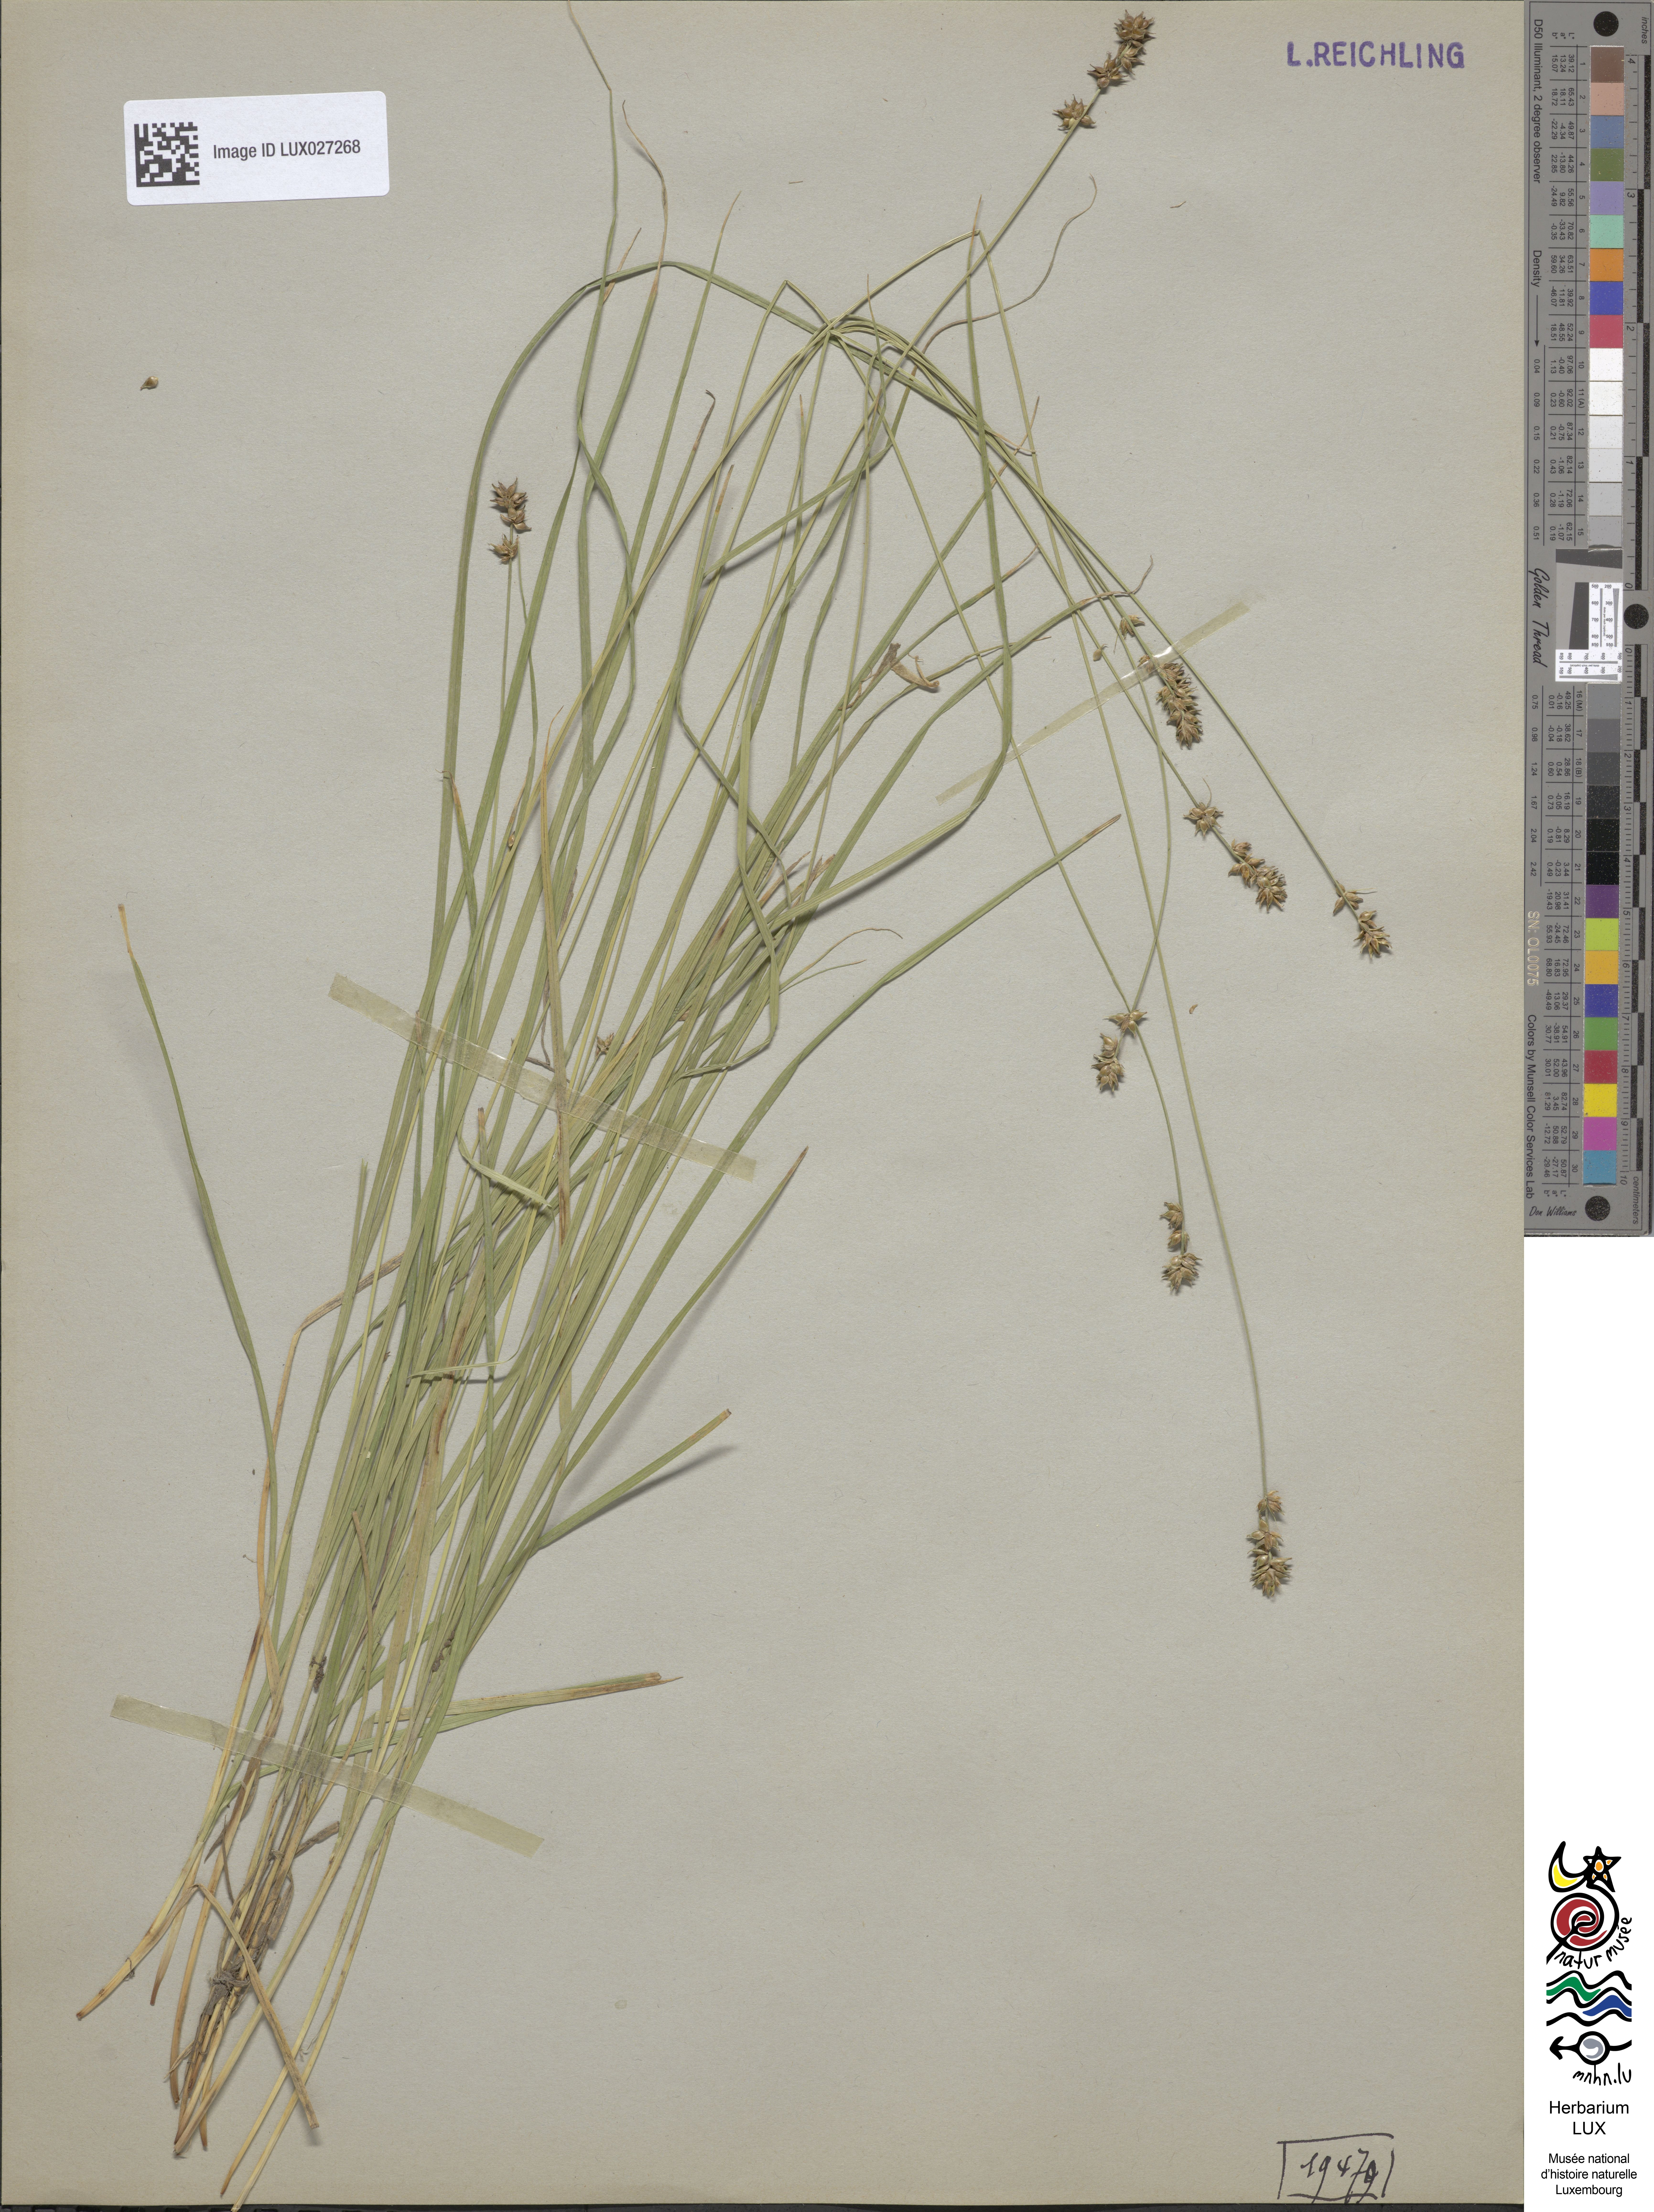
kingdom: Plantae
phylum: Tracheophyta
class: Liliopsida
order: Poales
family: Cyperaceae
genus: Carex
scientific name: Carex pairae
